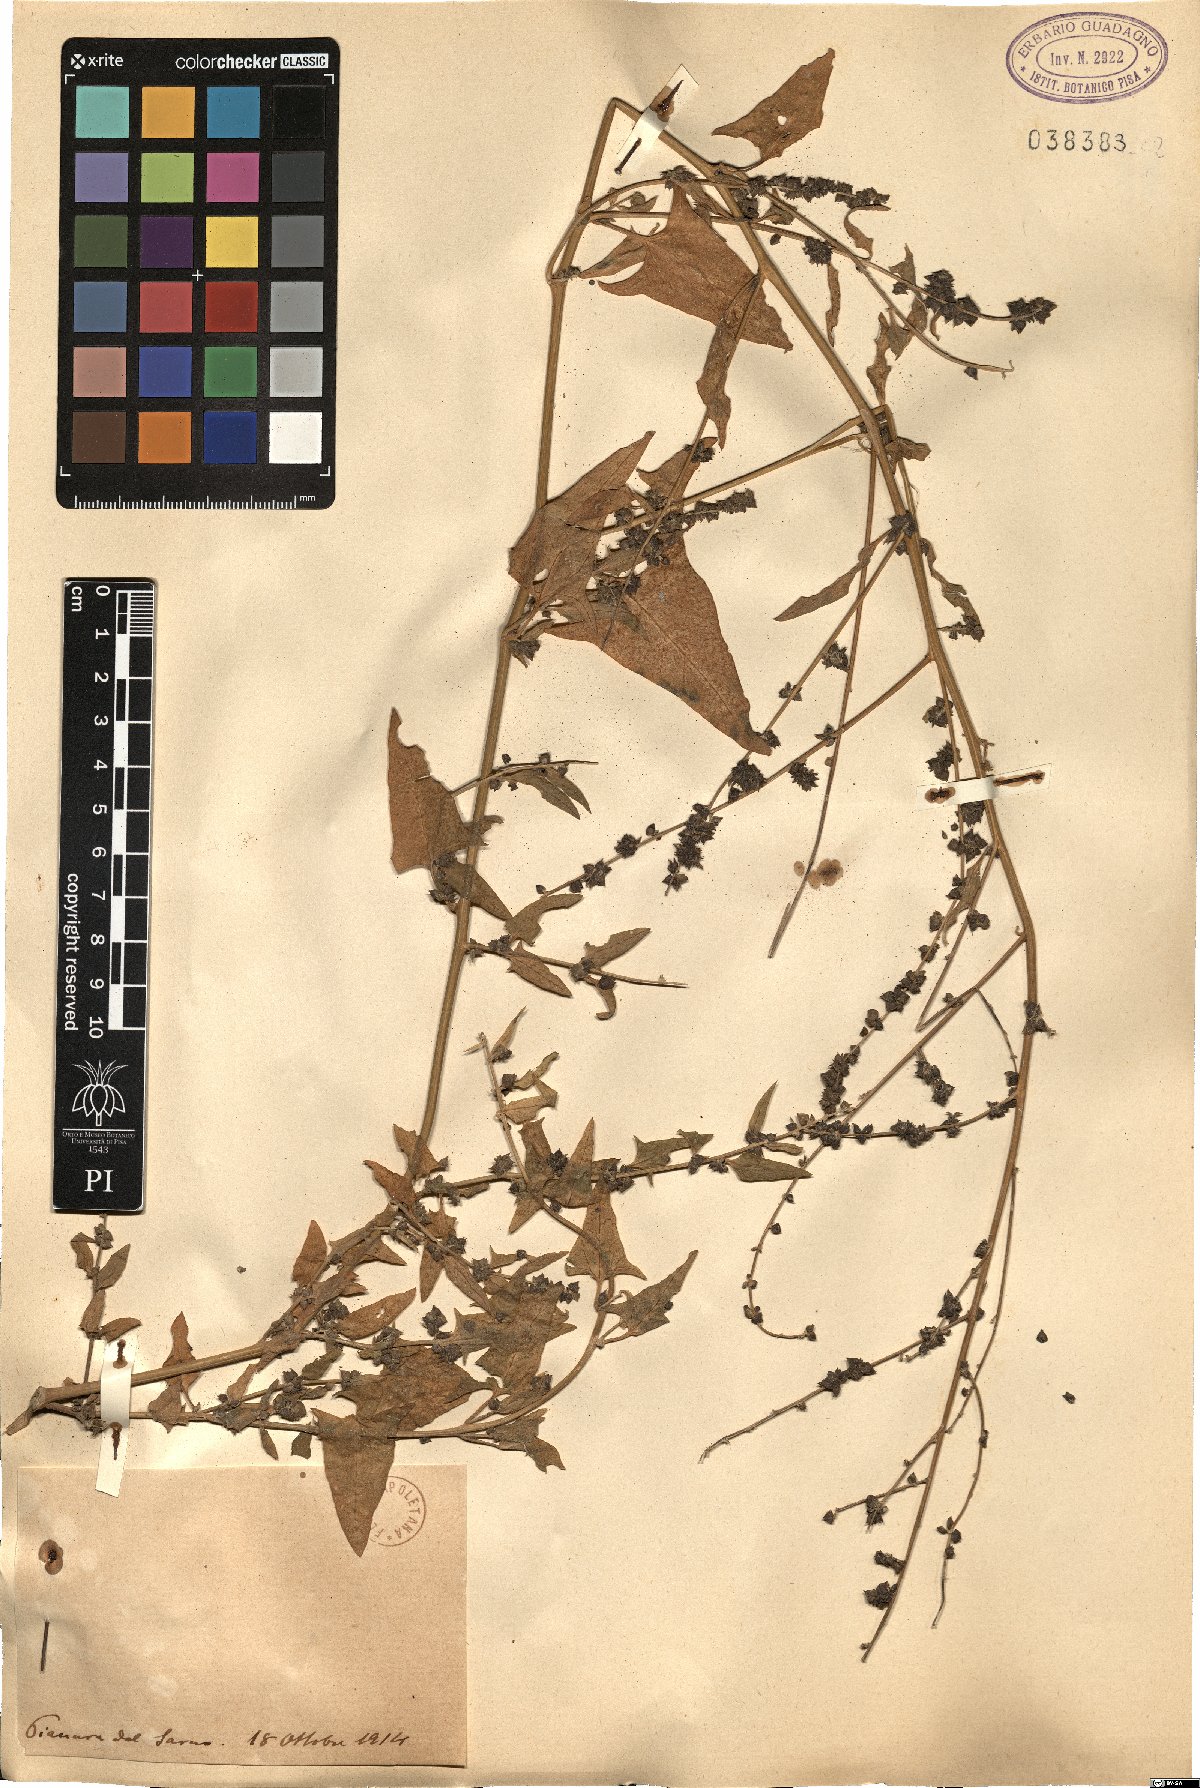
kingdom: Plantae
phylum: Tracheophyta
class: Magnoliopsida
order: Caryophyllales
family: Amaranthaceae
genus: Atriplex
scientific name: Atriplex
